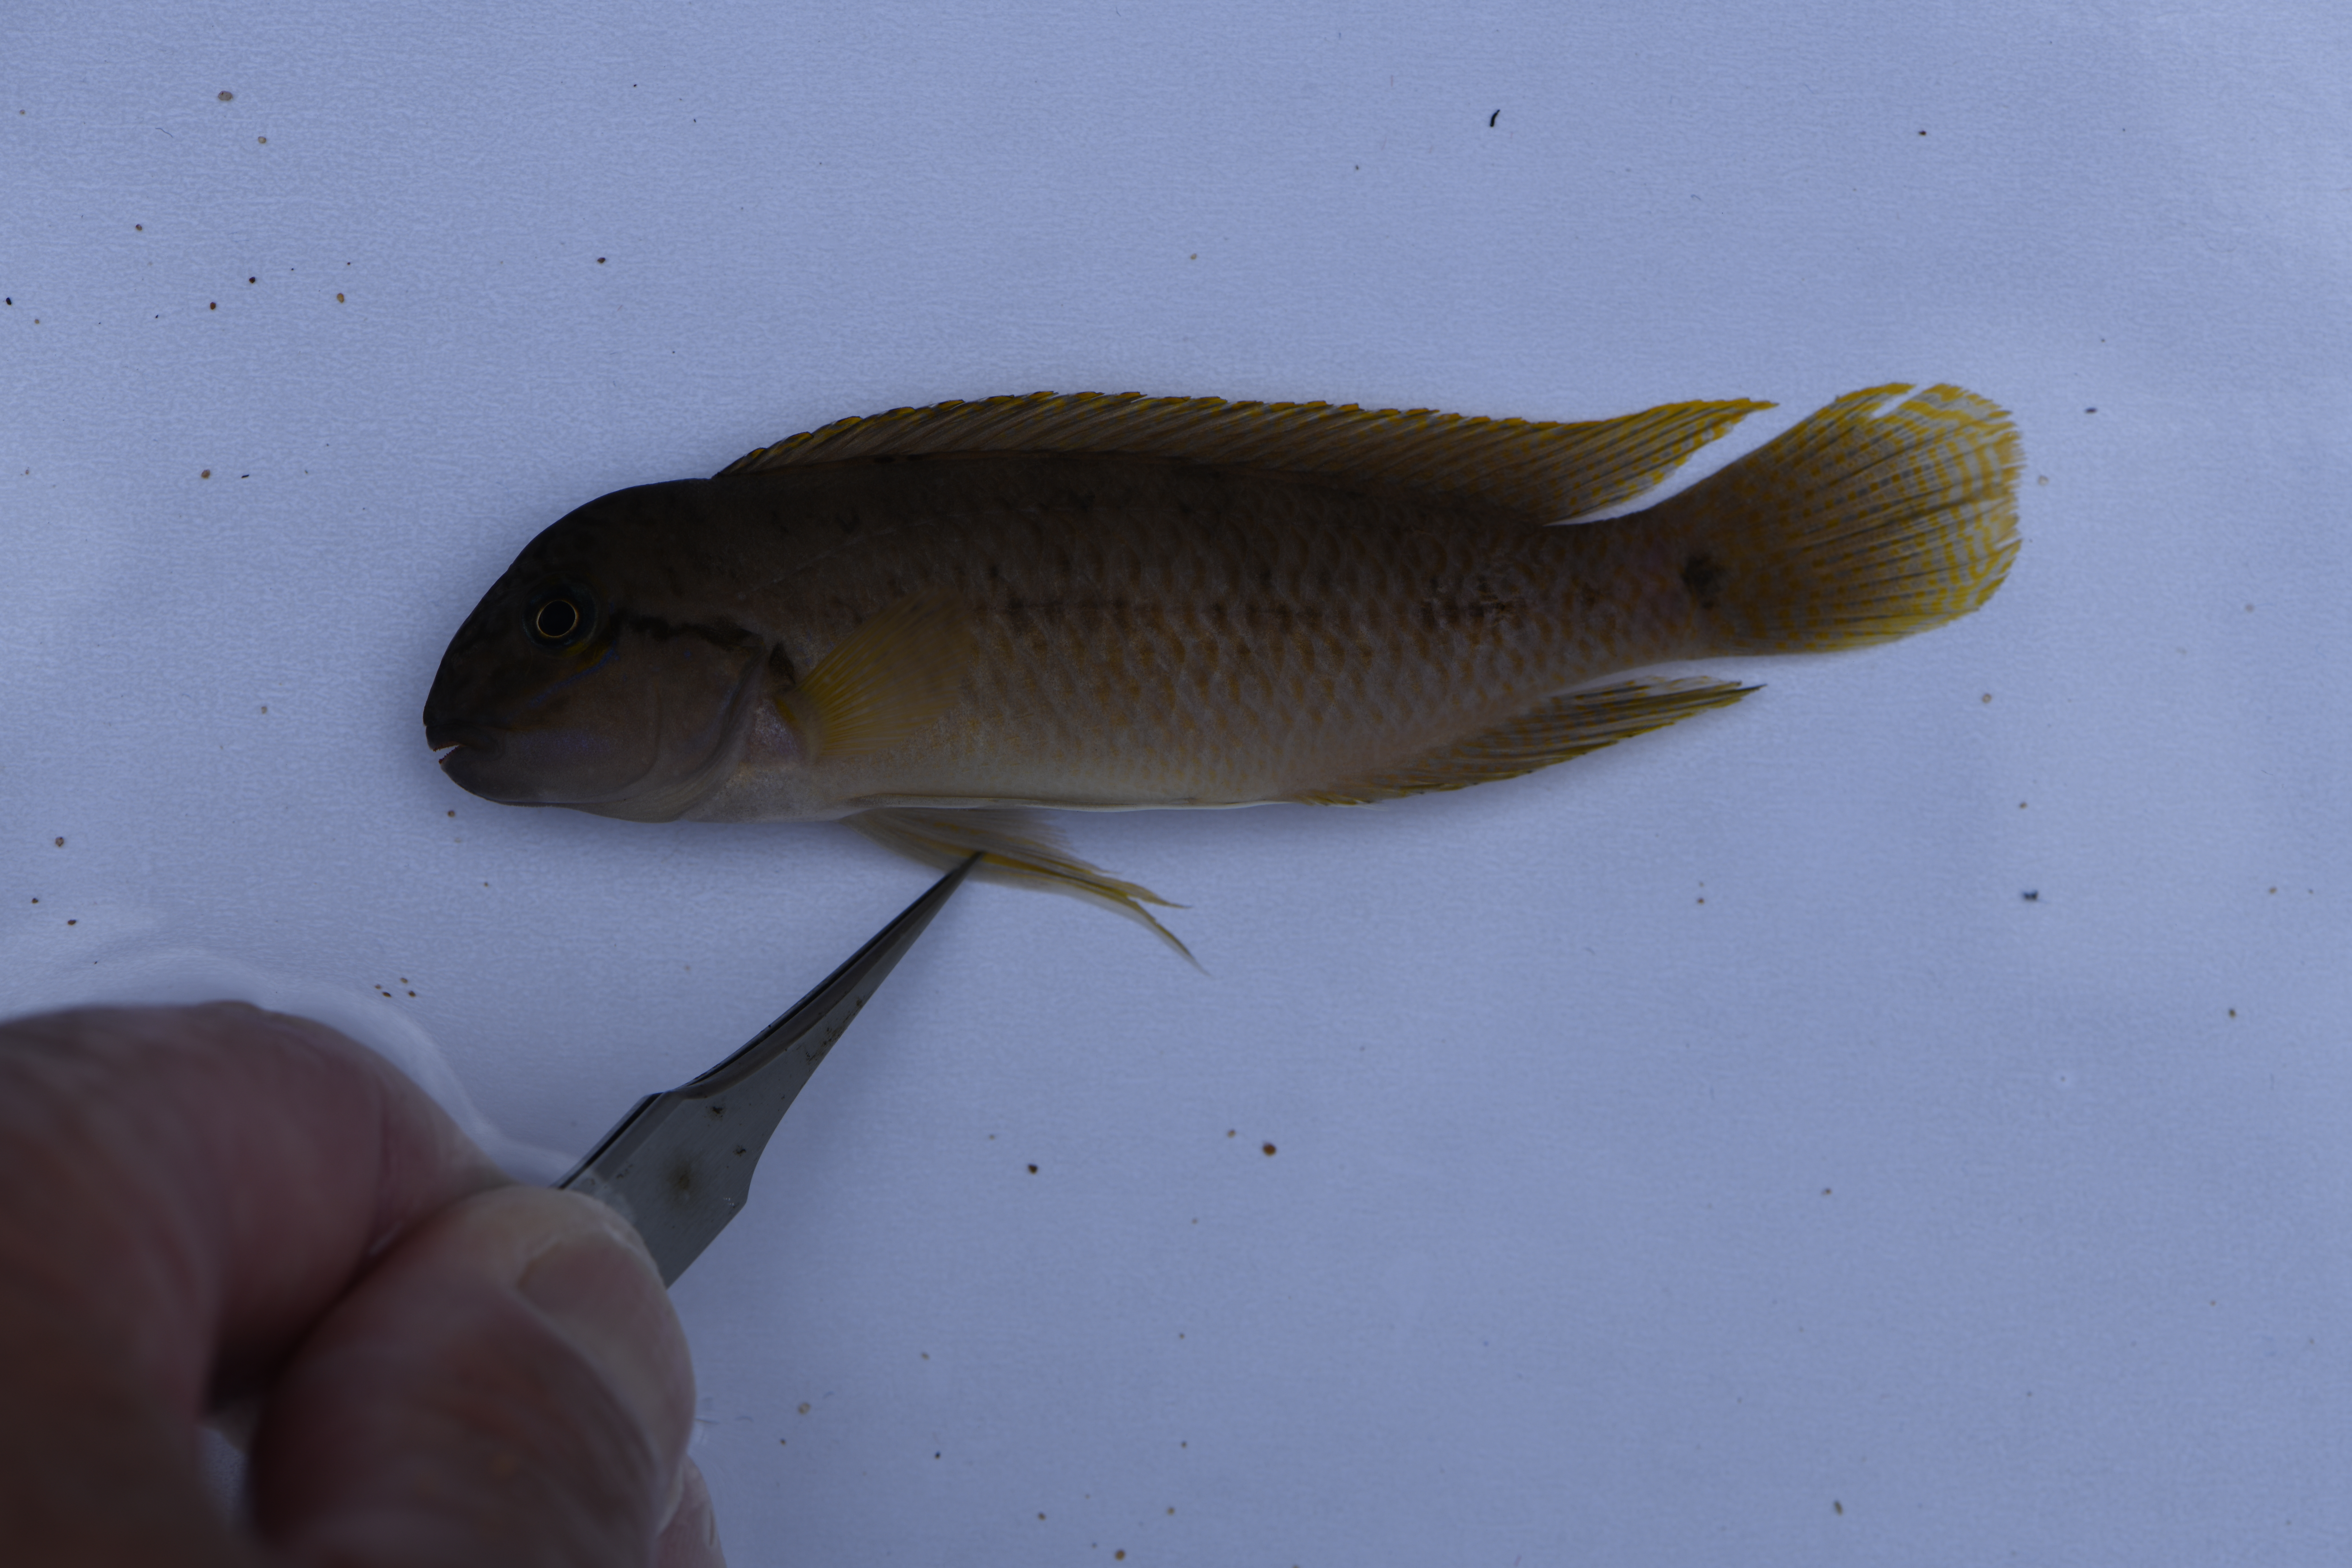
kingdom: Animalia
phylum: Chordata
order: Perciformes
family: Cichlidae
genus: Telmatochromis
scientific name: Telmatochromis temporalis
